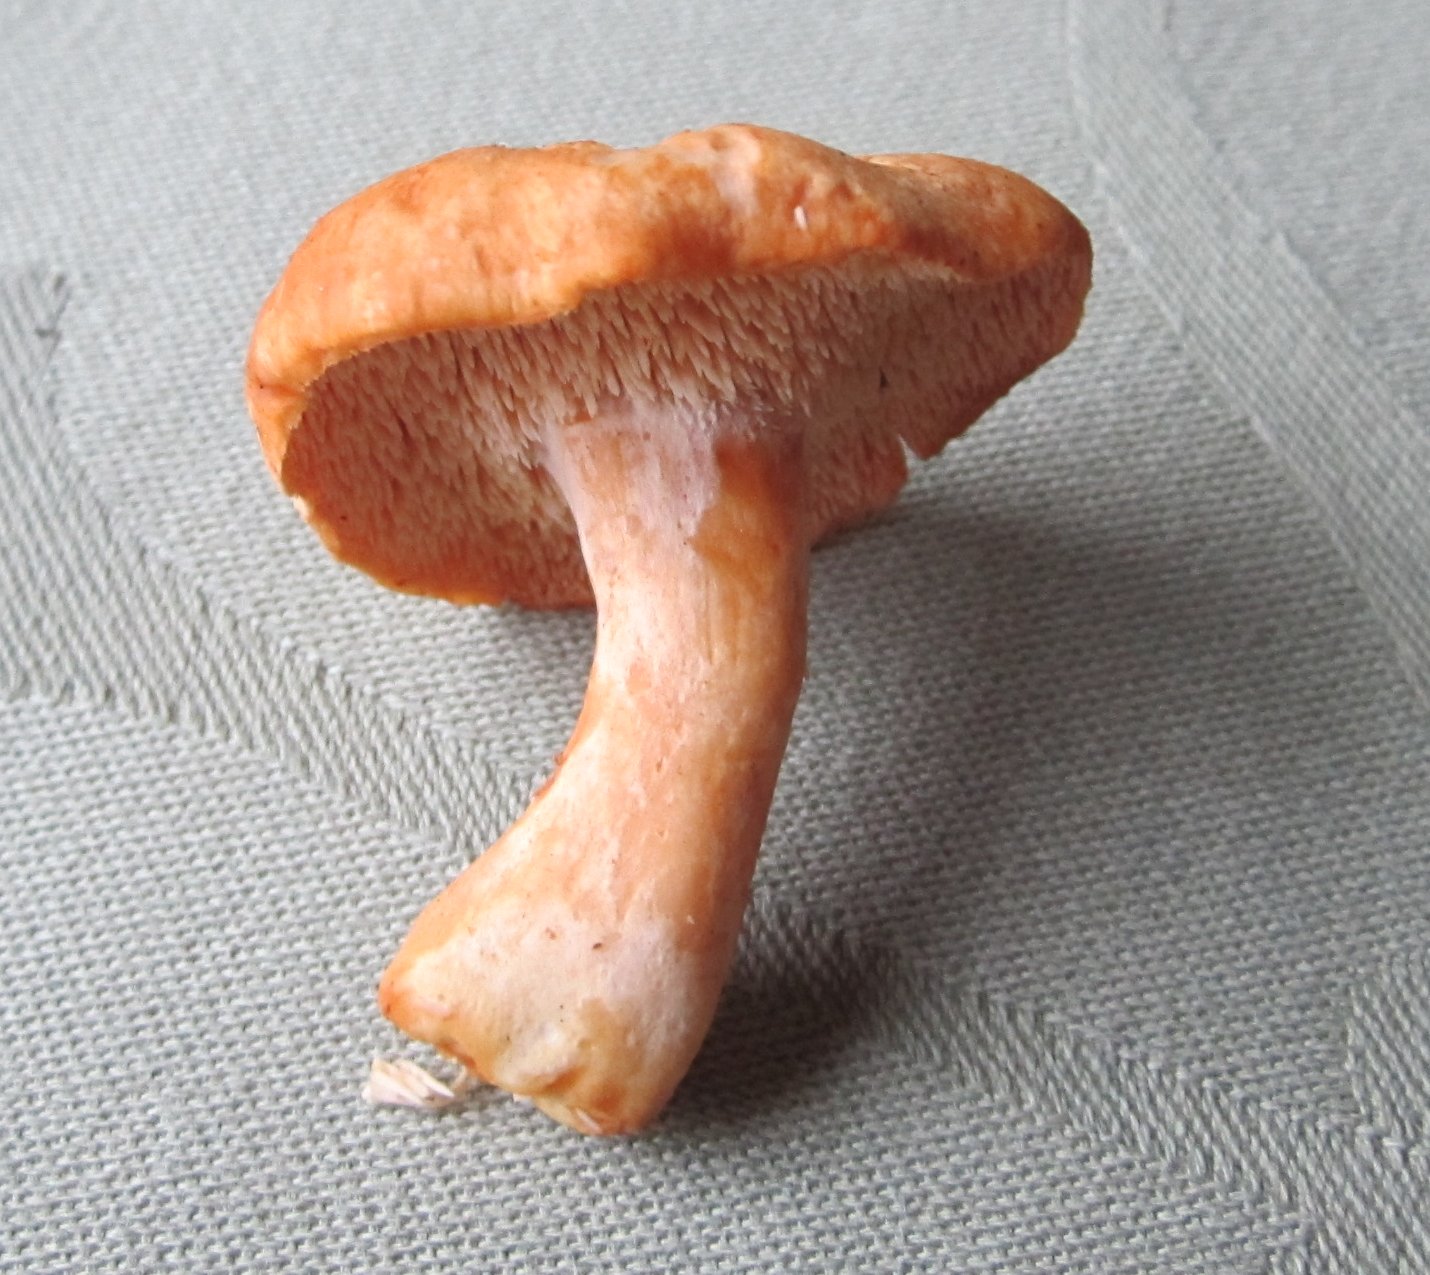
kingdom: Fungi
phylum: Basidiomycota
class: Agaricomycetes
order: Cantharellales
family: Hydnaceae
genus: Hydnum
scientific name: Hydnum rufescens
